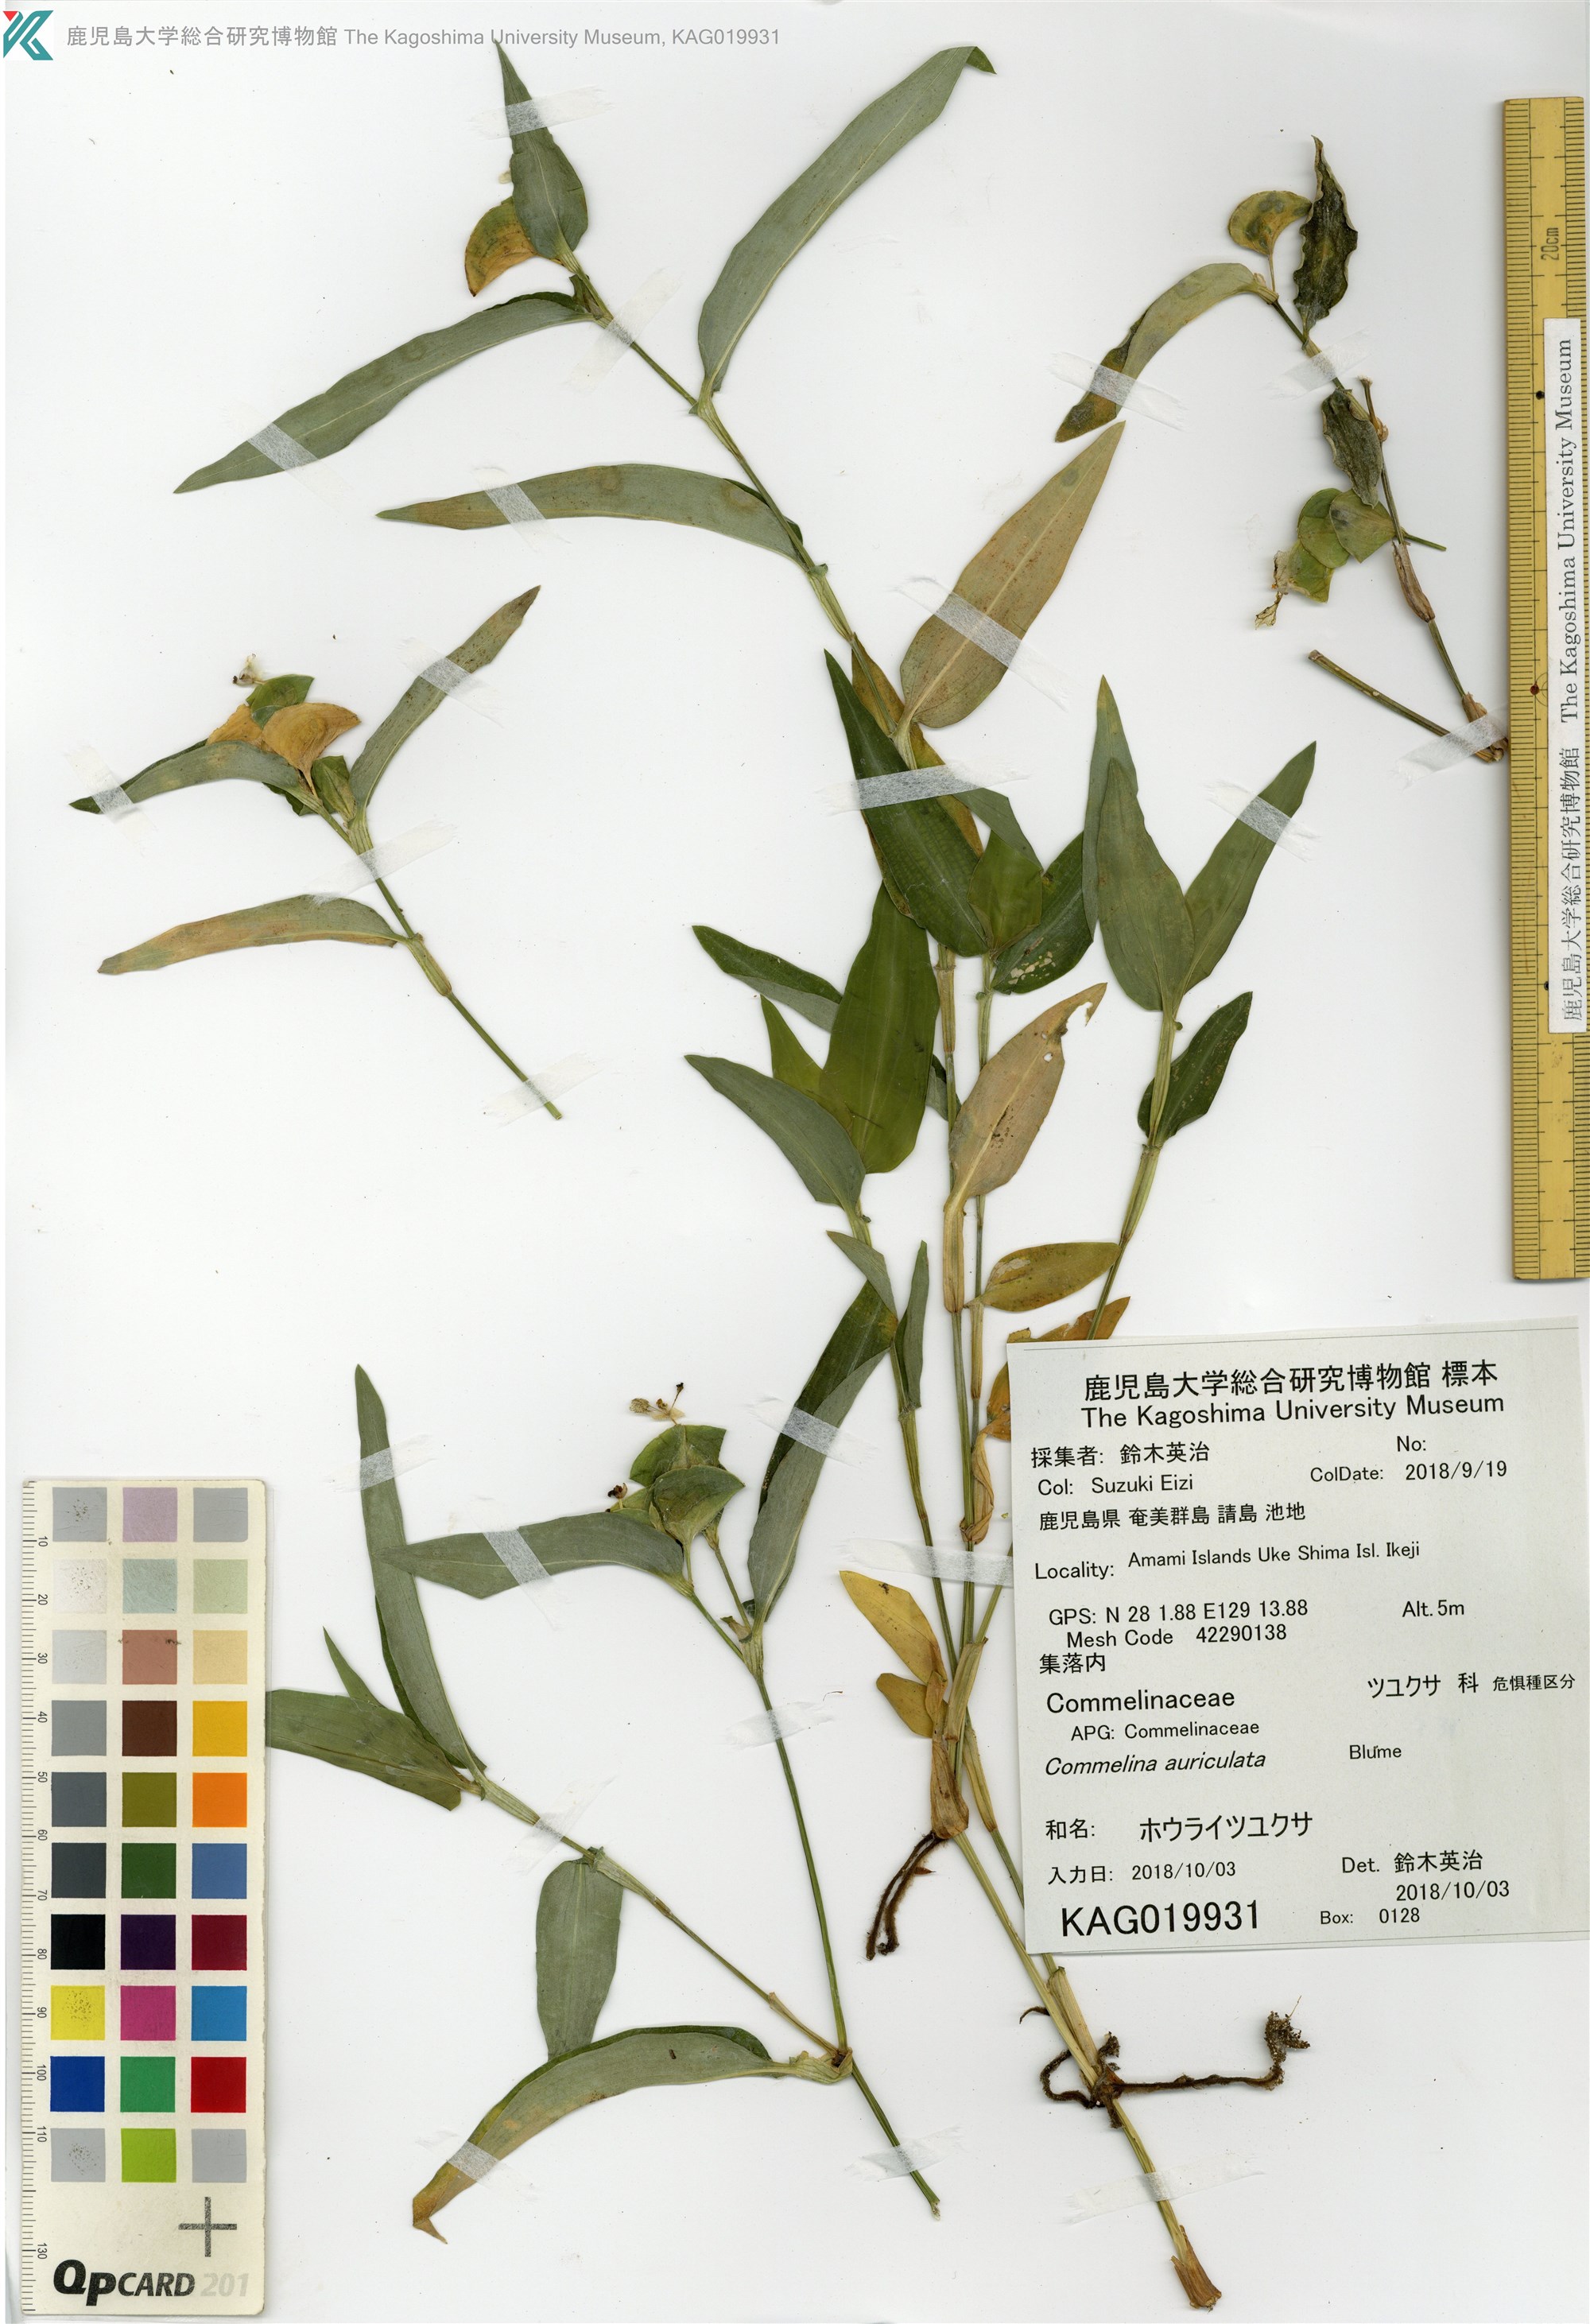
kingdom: Plantae
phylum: Tracheophyta
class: Liliopsida
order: Commelinales
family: Commelinaceae
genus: Commelina
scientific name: Commelina auriculata
